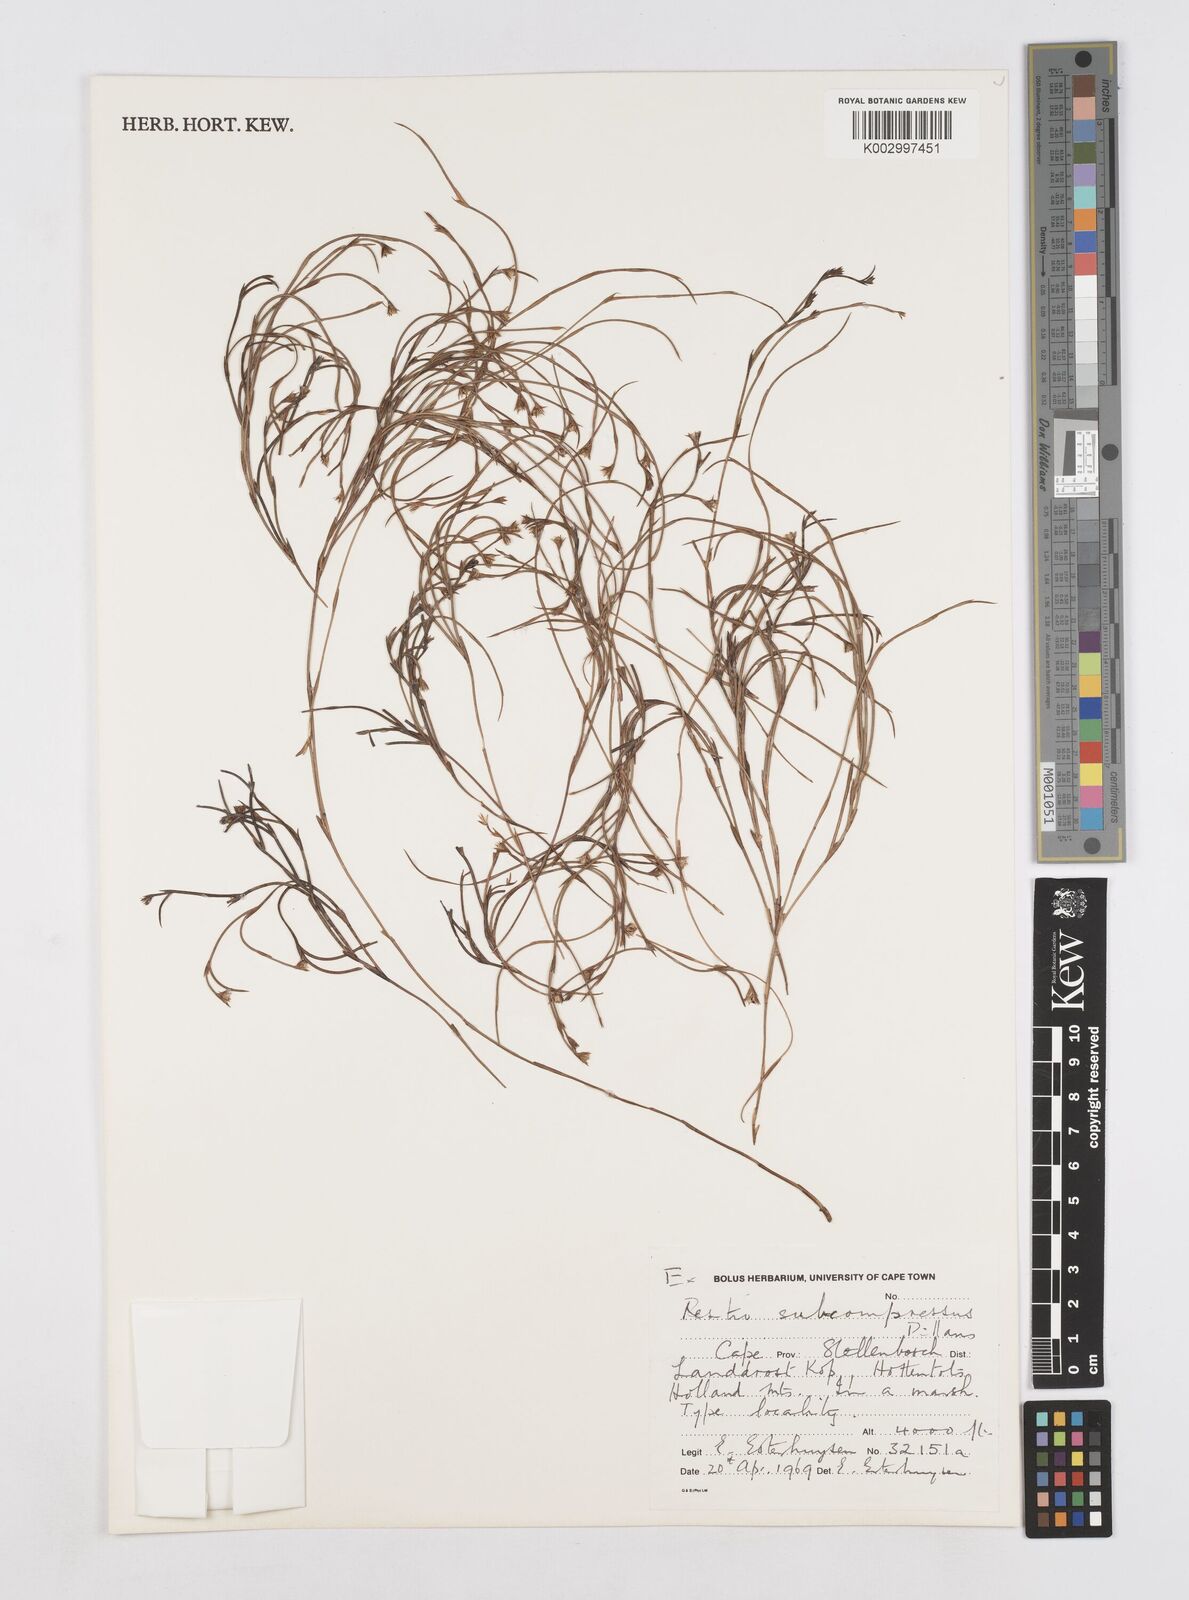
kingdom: Plantae
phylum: Tracheophyta
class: Liliopsida
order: Poales
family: Restionaceae
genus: Platycaulos
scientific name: Platycaulos subcompressus
